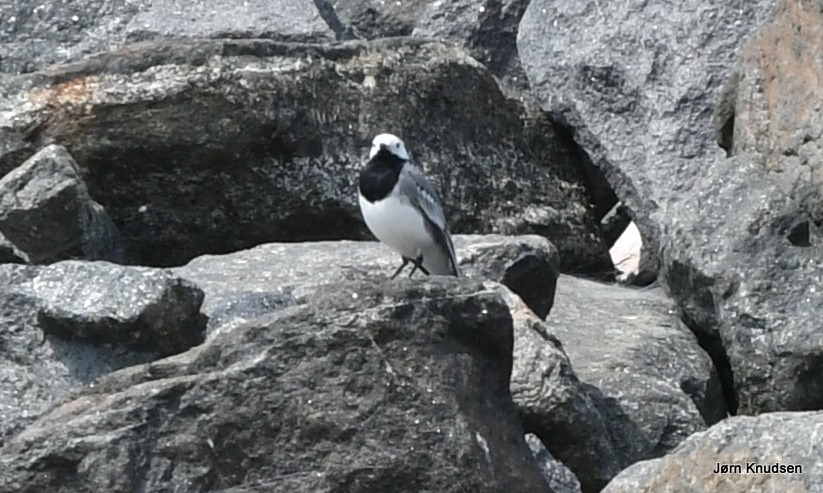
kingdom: Animalia
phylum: Chordata
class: Aves
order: Passeriformes
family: Motacillidae
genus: Motacilla
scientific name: Motacilla alba
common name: Hvid vipstjert
